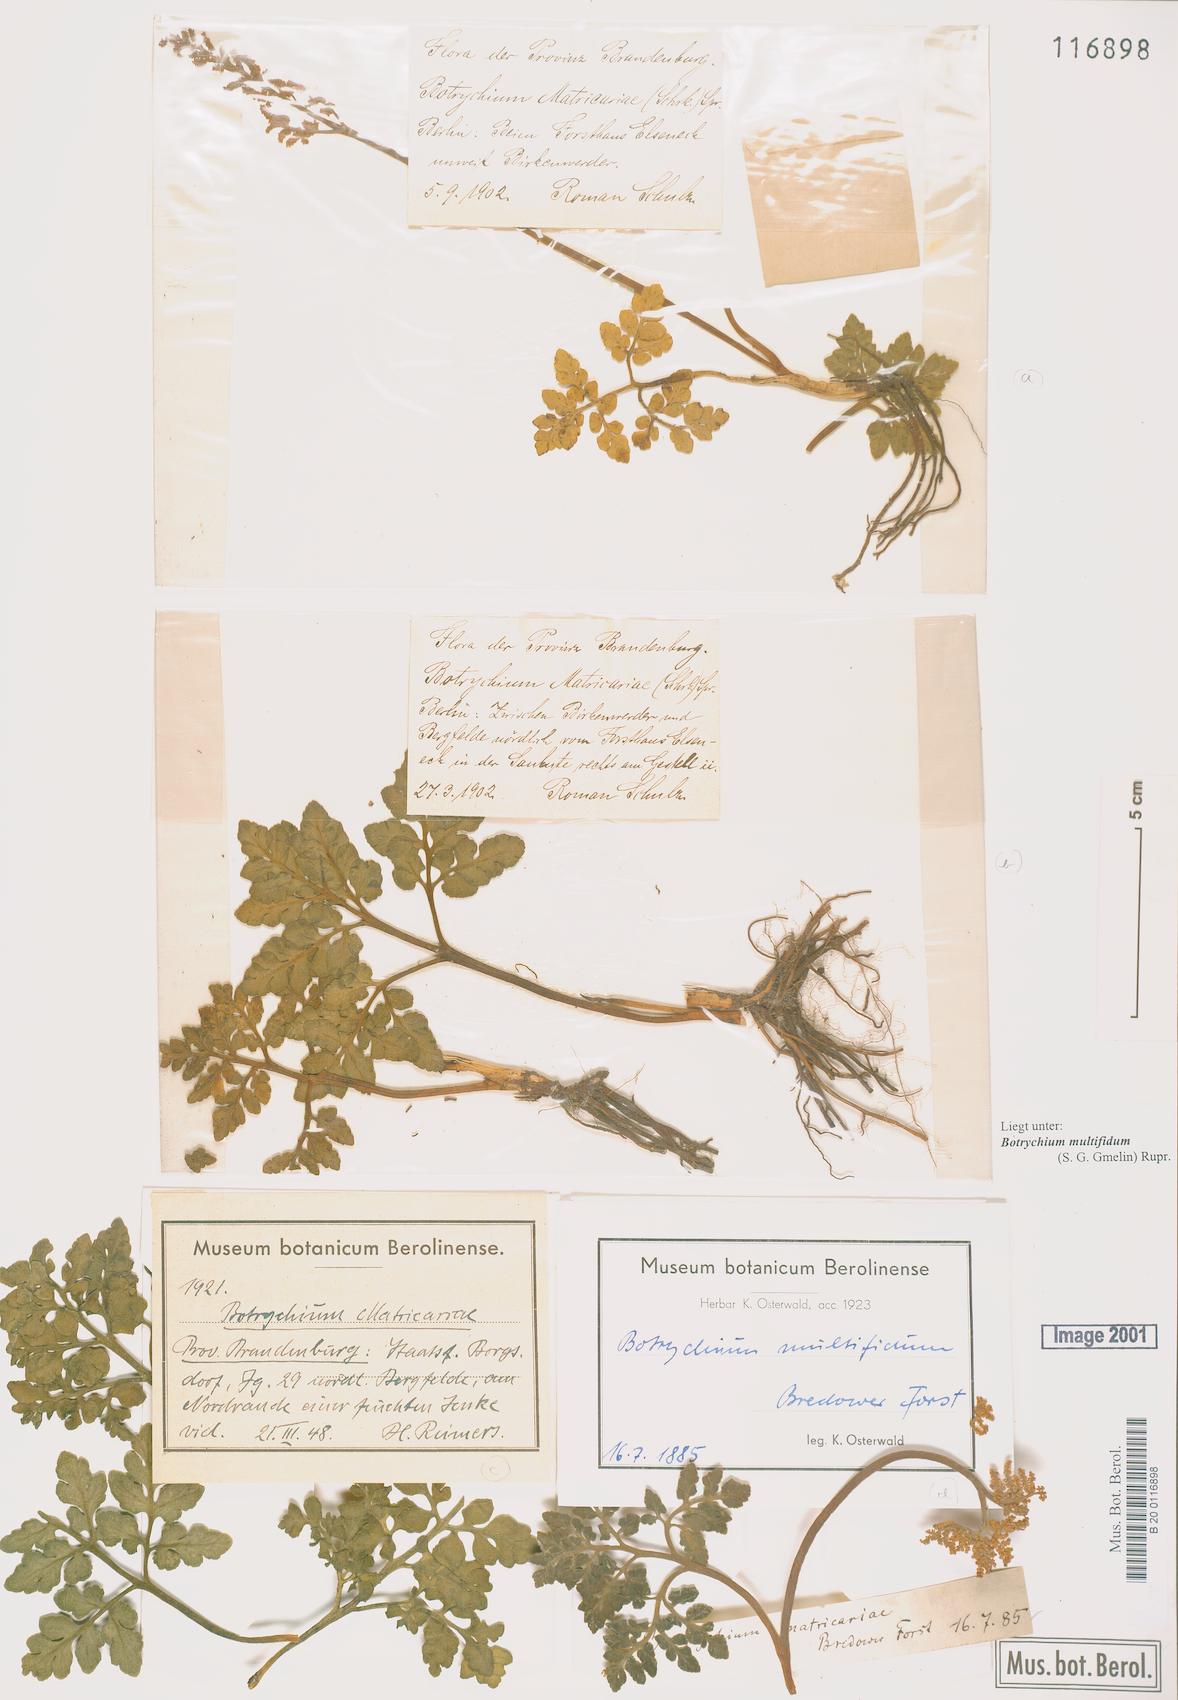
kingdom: Plantae
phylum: Tracheophyta
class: Polypodiopsida
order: Ophioglossales
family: Ophioglossaceae
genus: Sceptridium
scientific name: Sceptridium multifidum
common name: Leathery grape fern
